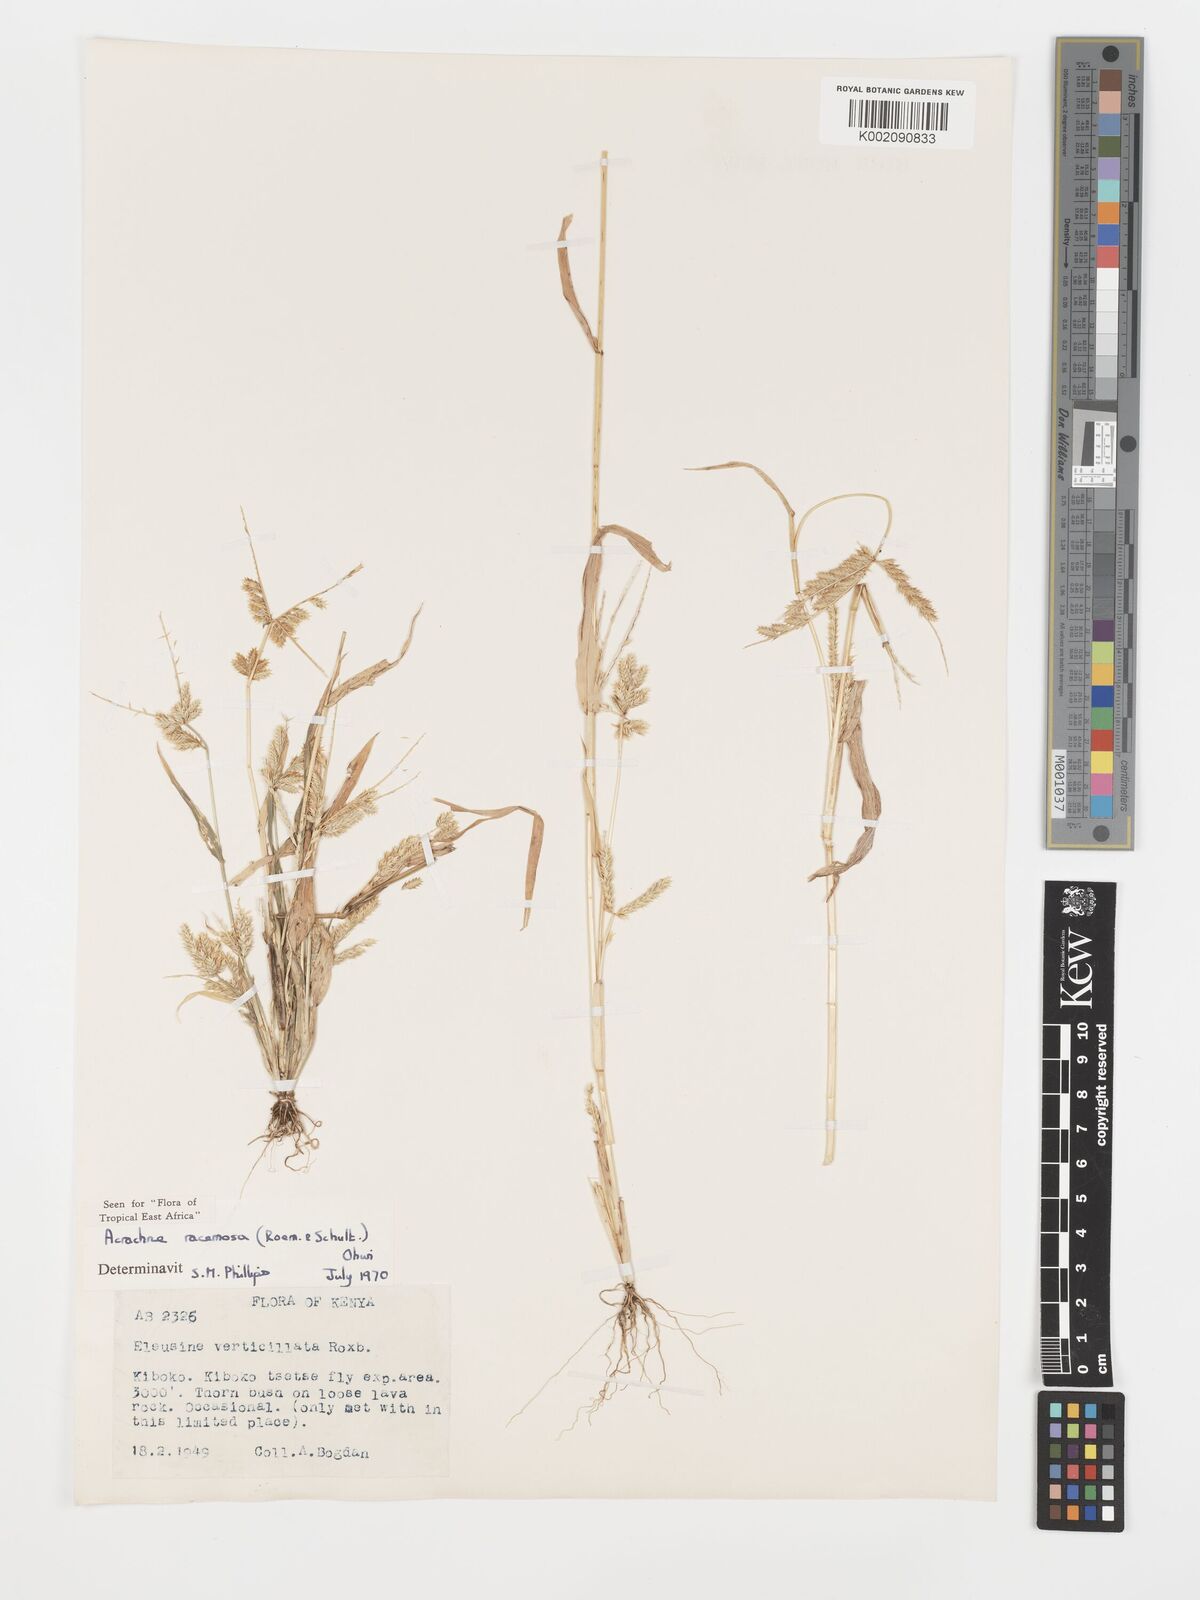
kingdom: Plantae
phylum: Tracheophyta
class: Liliopsida
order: Poales
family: Poaceae
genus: Acrachne
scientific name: Acrachne racemosa
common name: Goosegrass
